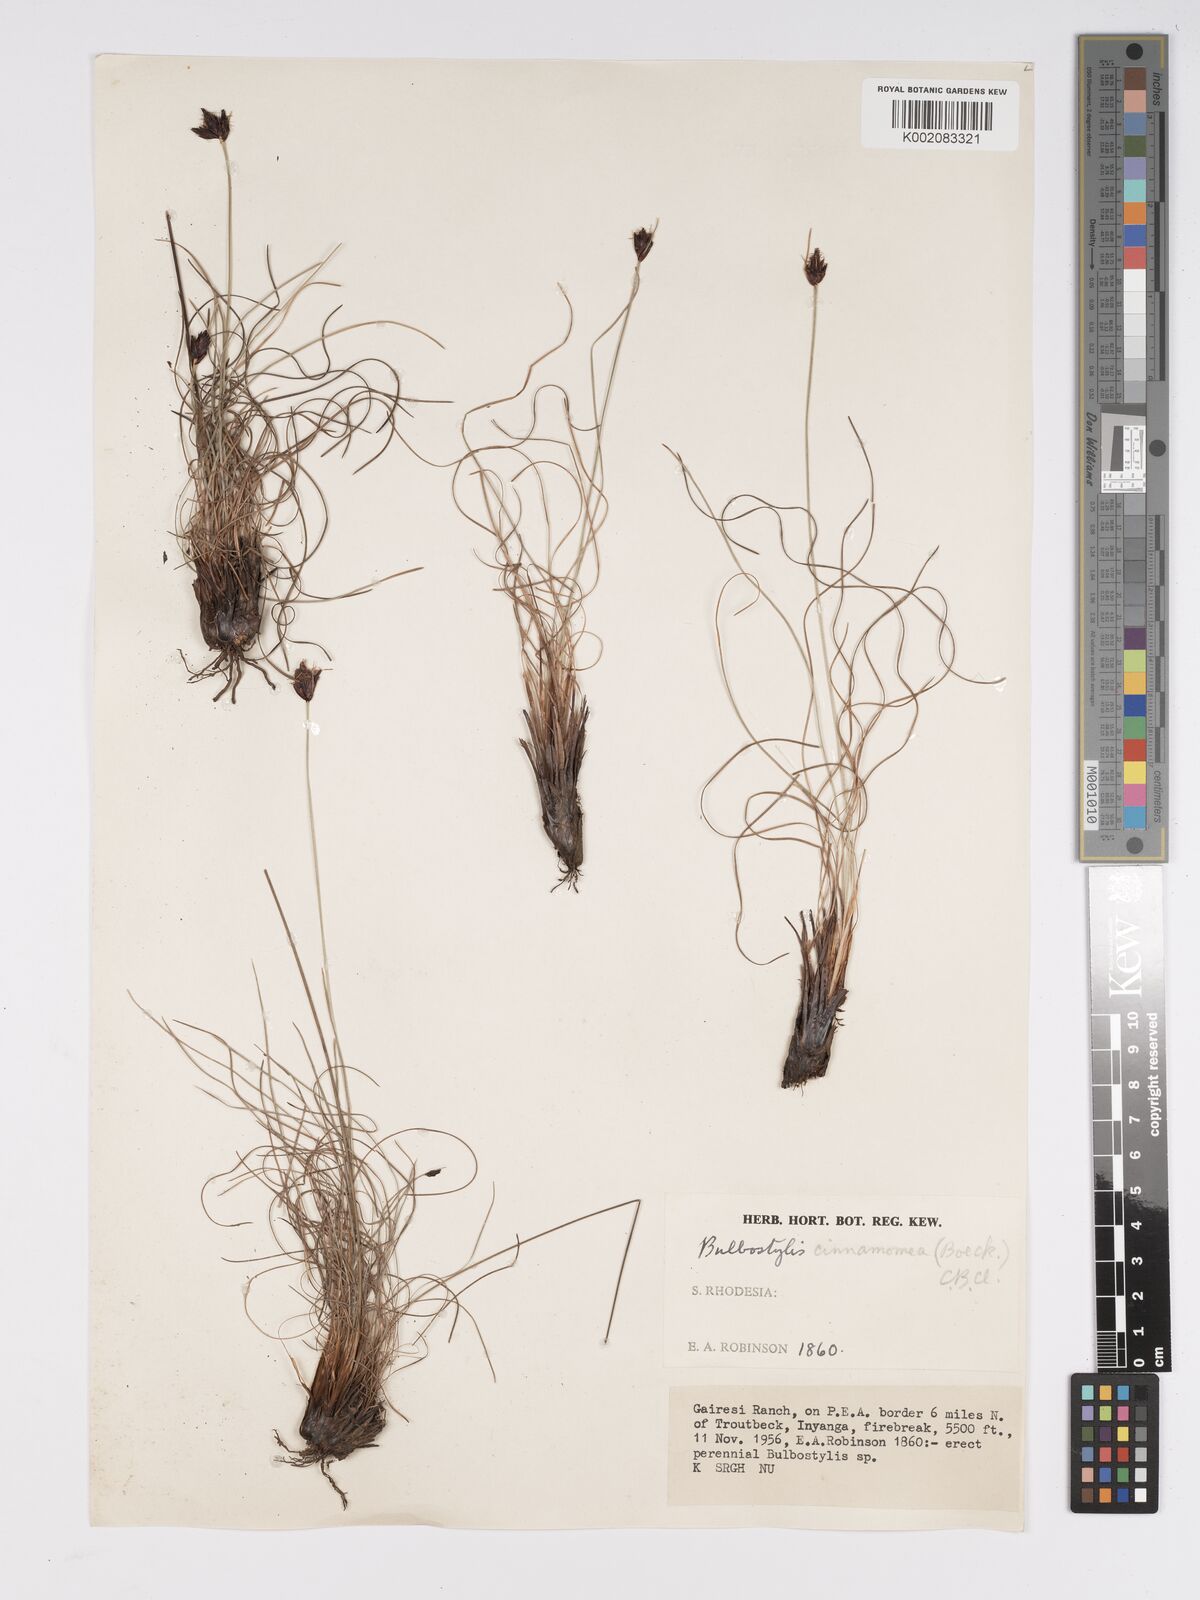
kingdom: Plantae
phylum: Tracheophyta
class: Liliopsida
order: Poales
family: Cyperaceae
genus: Bulbostylis
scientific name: Bulbostylis schoenoides
